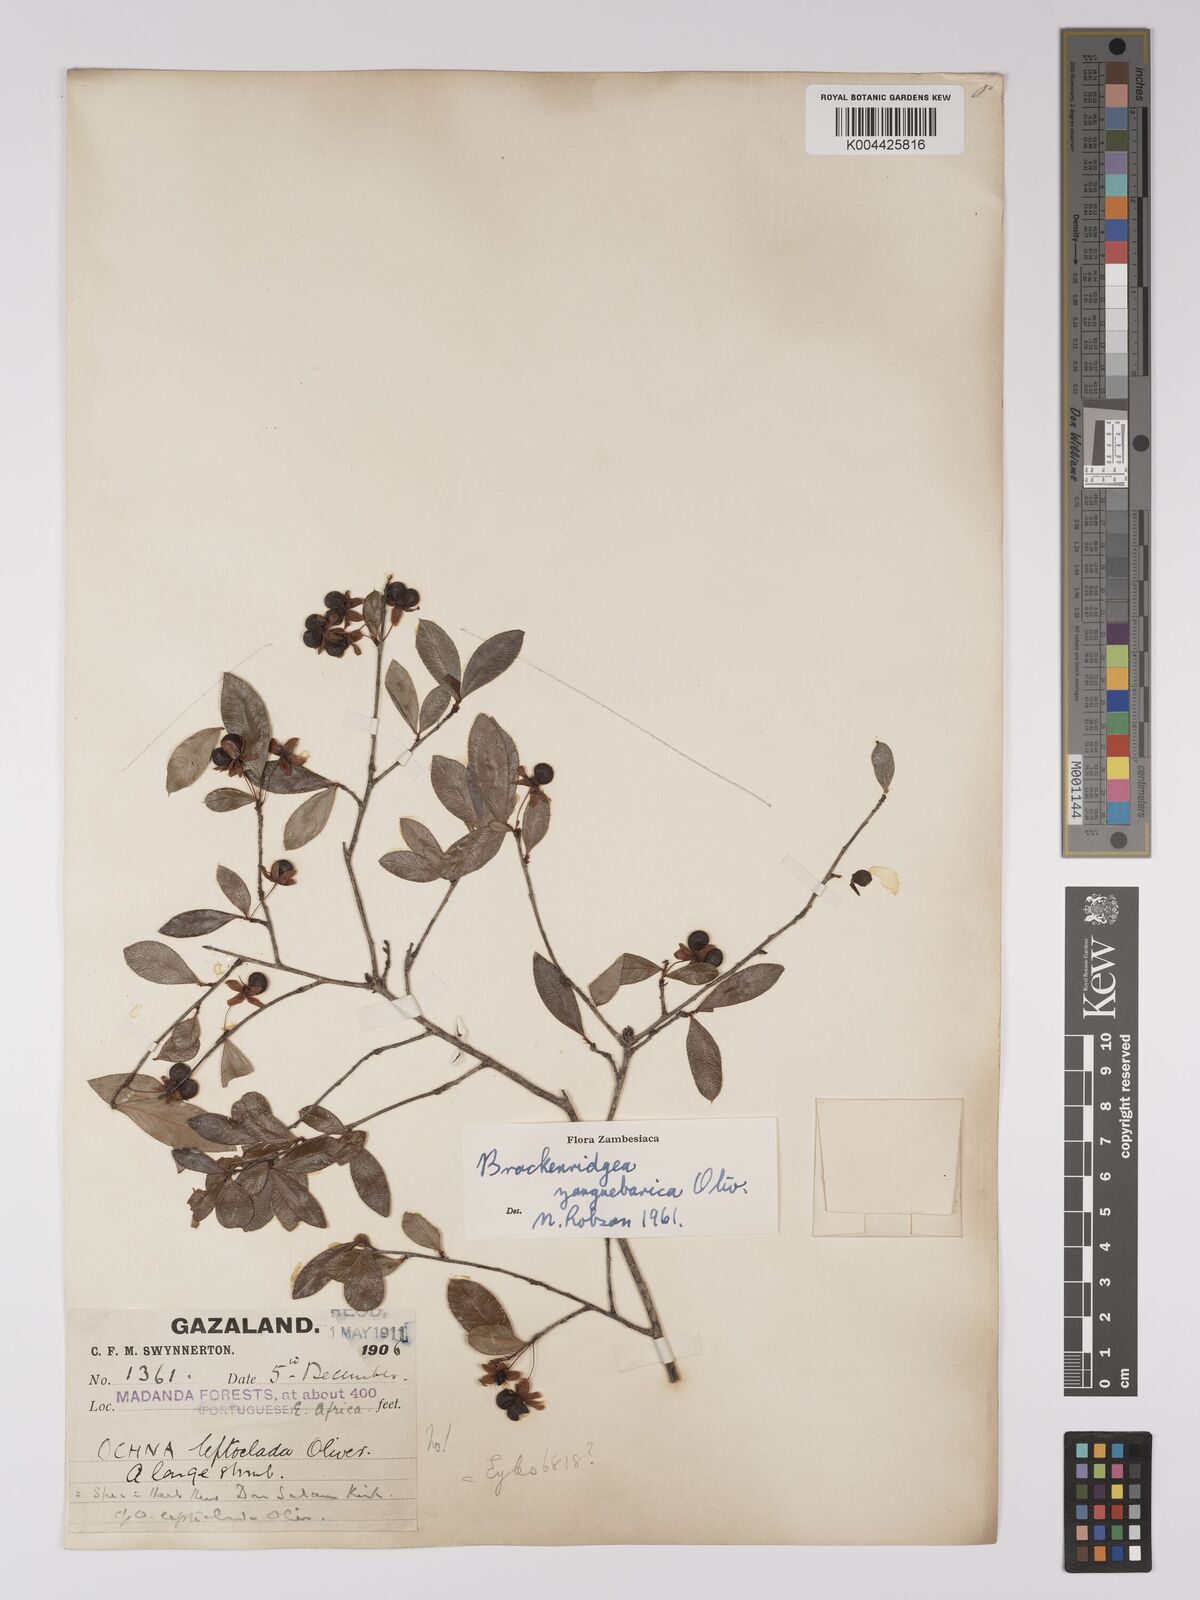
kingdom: Plantae
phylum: Tracheophyta
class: Magnoliopsida
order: Malpighiales
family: Ochnaceae
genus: Brackenridgea
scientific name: Brackenridgea zanguebarica
